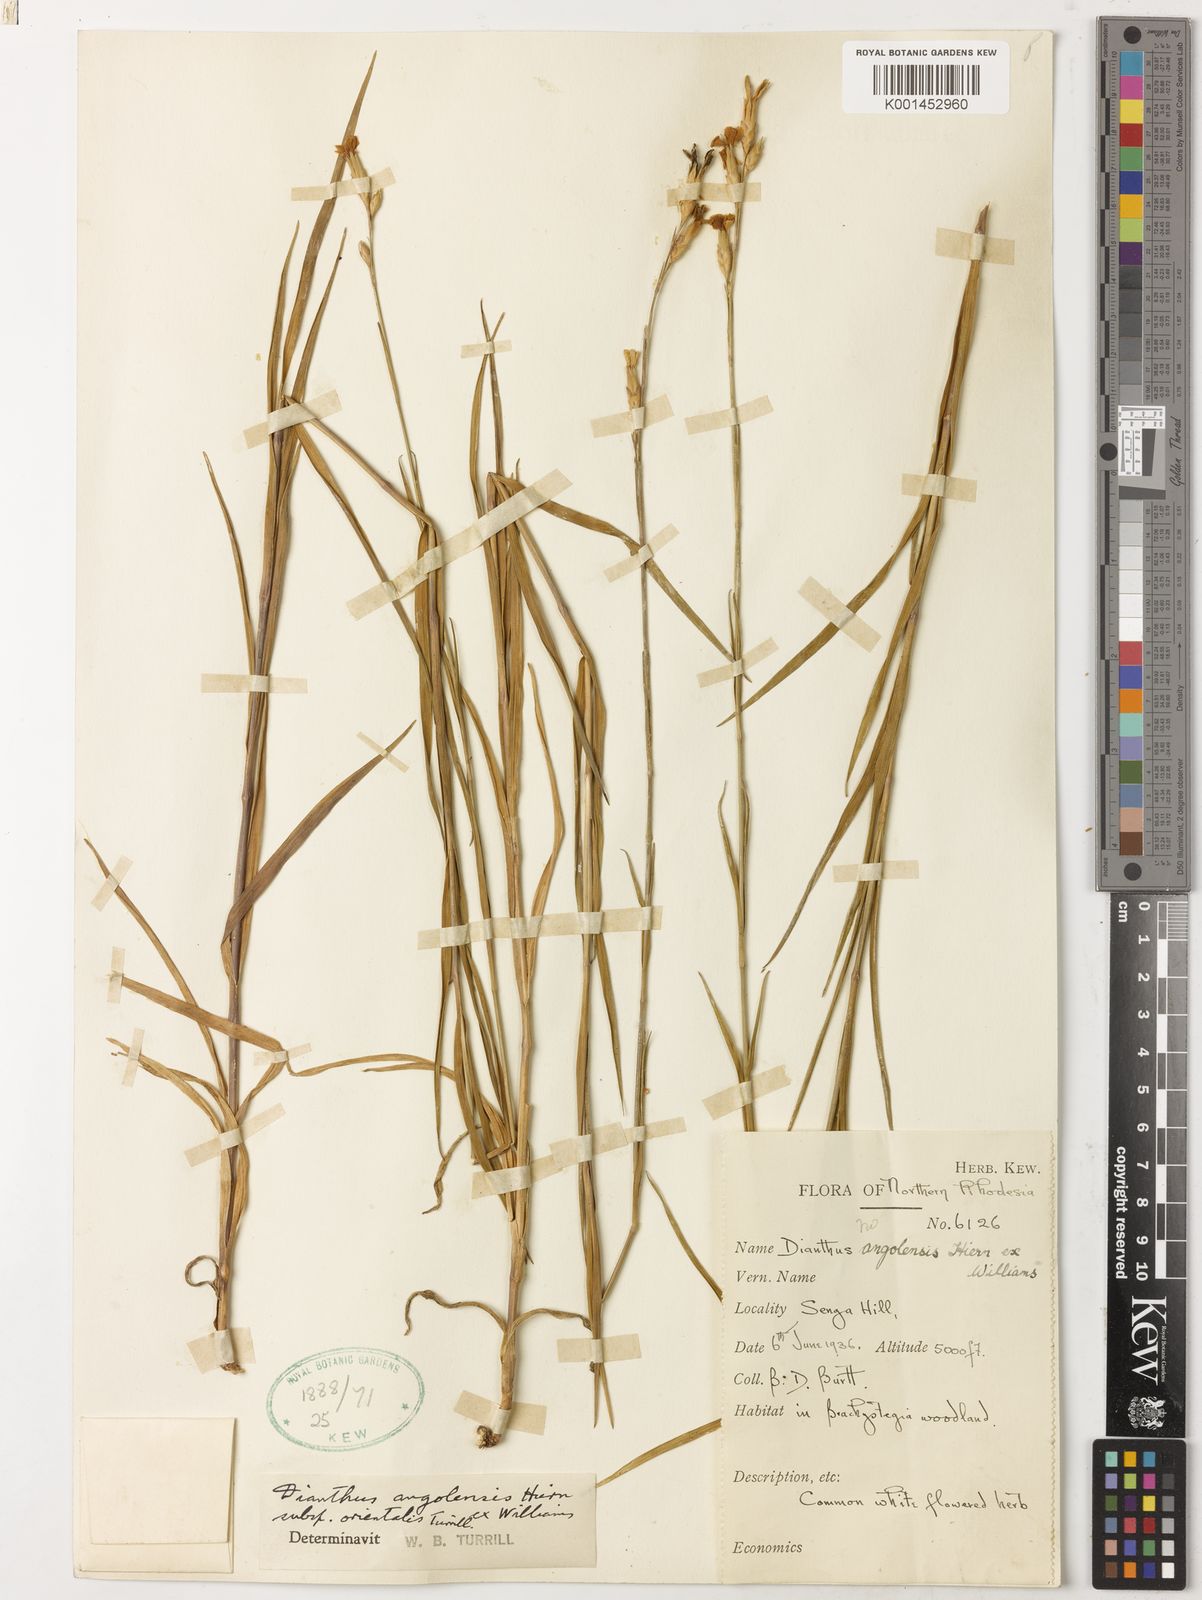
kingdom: Plantae
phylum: Tracheophyta
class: Magnoliopsida
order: Caryophyllales
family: Caryophyllaceae
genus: Dianthus
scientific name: Dianthus angolensis
